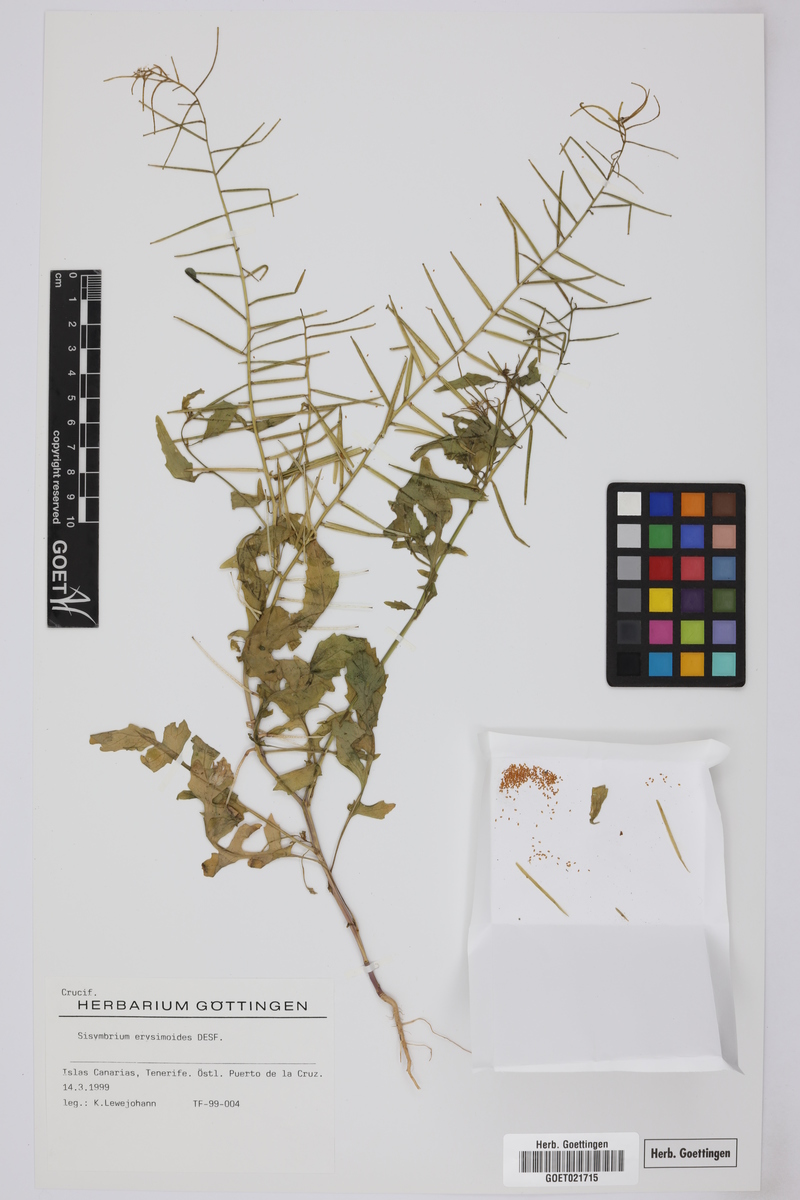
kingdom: Plantae
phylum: Tracheophyta
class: Magnoliopsida
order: Brassicales
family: Brassicaceae
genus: Sisymbrium
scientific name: Sisymbrium erysimoides
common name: French rocket
